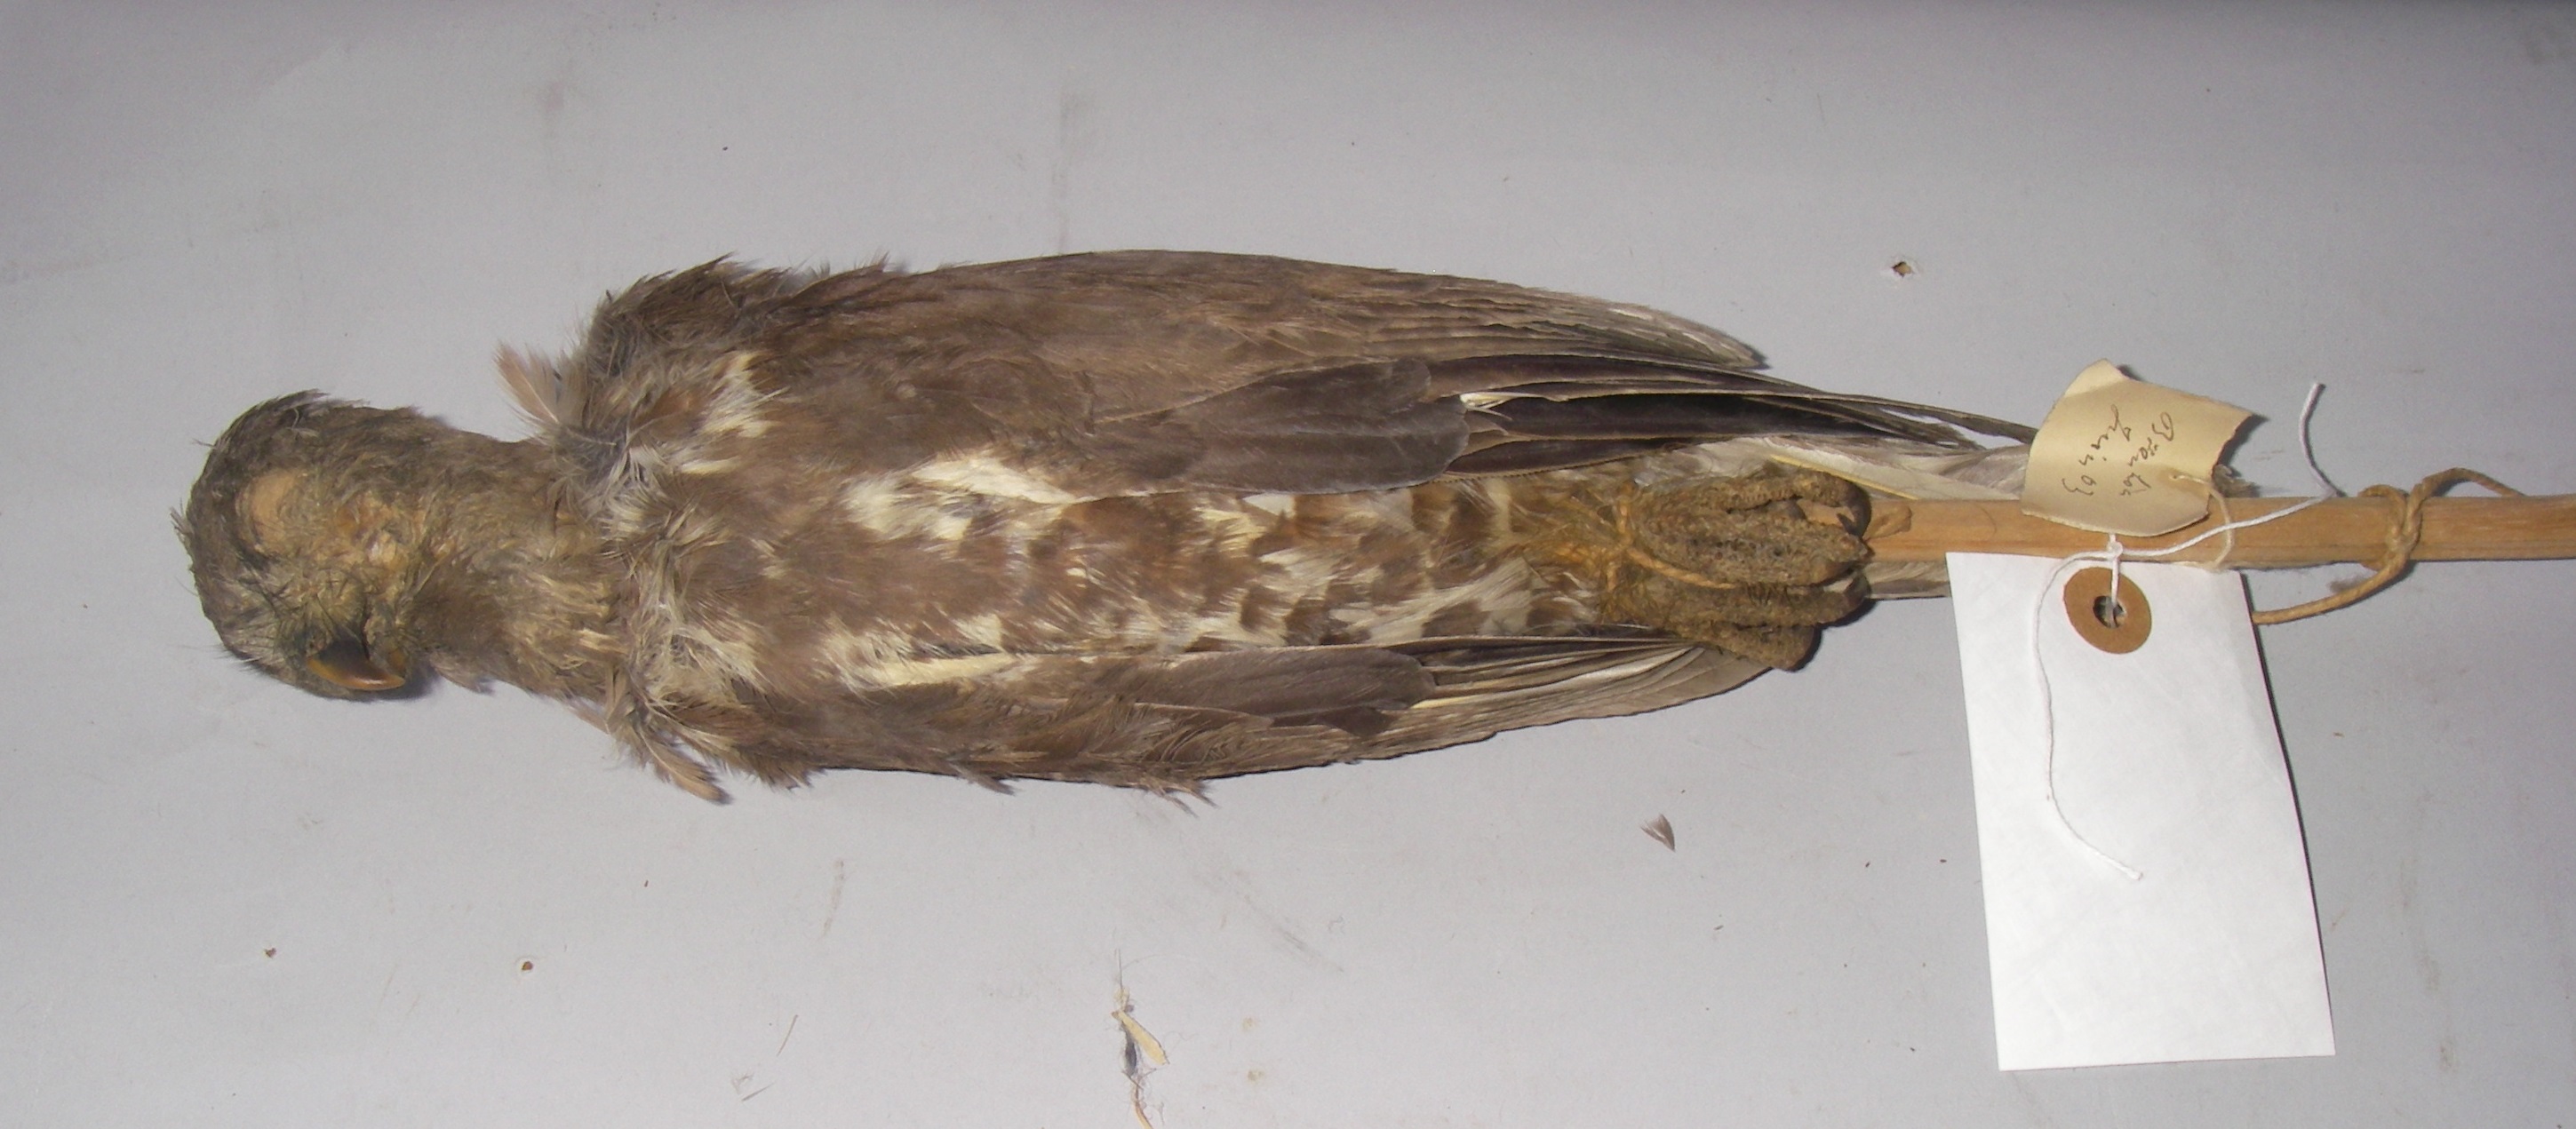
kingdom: Animalia
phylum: Chordata
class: Aves
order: Accipitriformes
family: Accipitridae
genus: Accipiter
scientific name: Accipiter virgatus
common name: Besra
